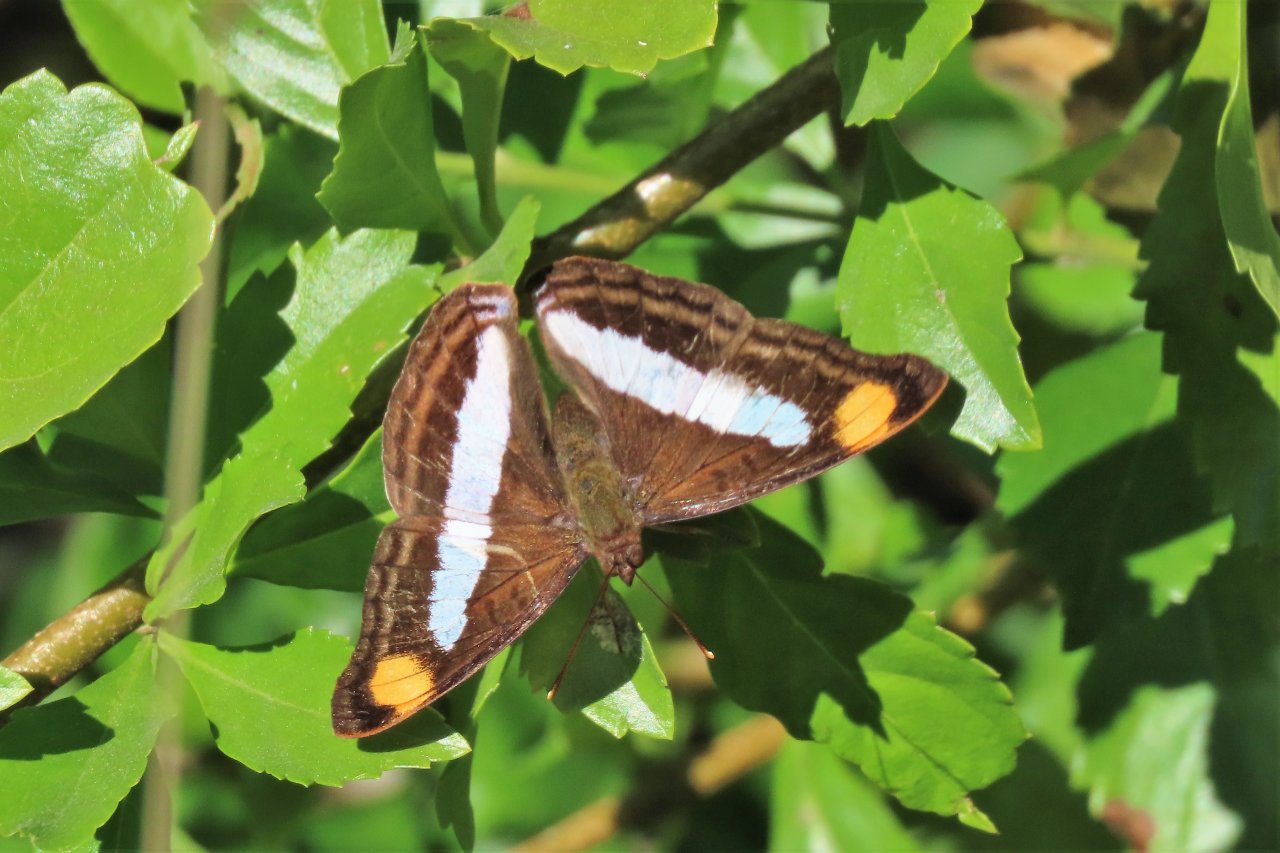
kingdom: Animalia
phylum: Arthropoda
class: Insecta
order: Lepidoptera
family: Nymphalidae
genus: Doxocopa
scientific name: Doxocopa pavon
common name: Pavon Emperor
